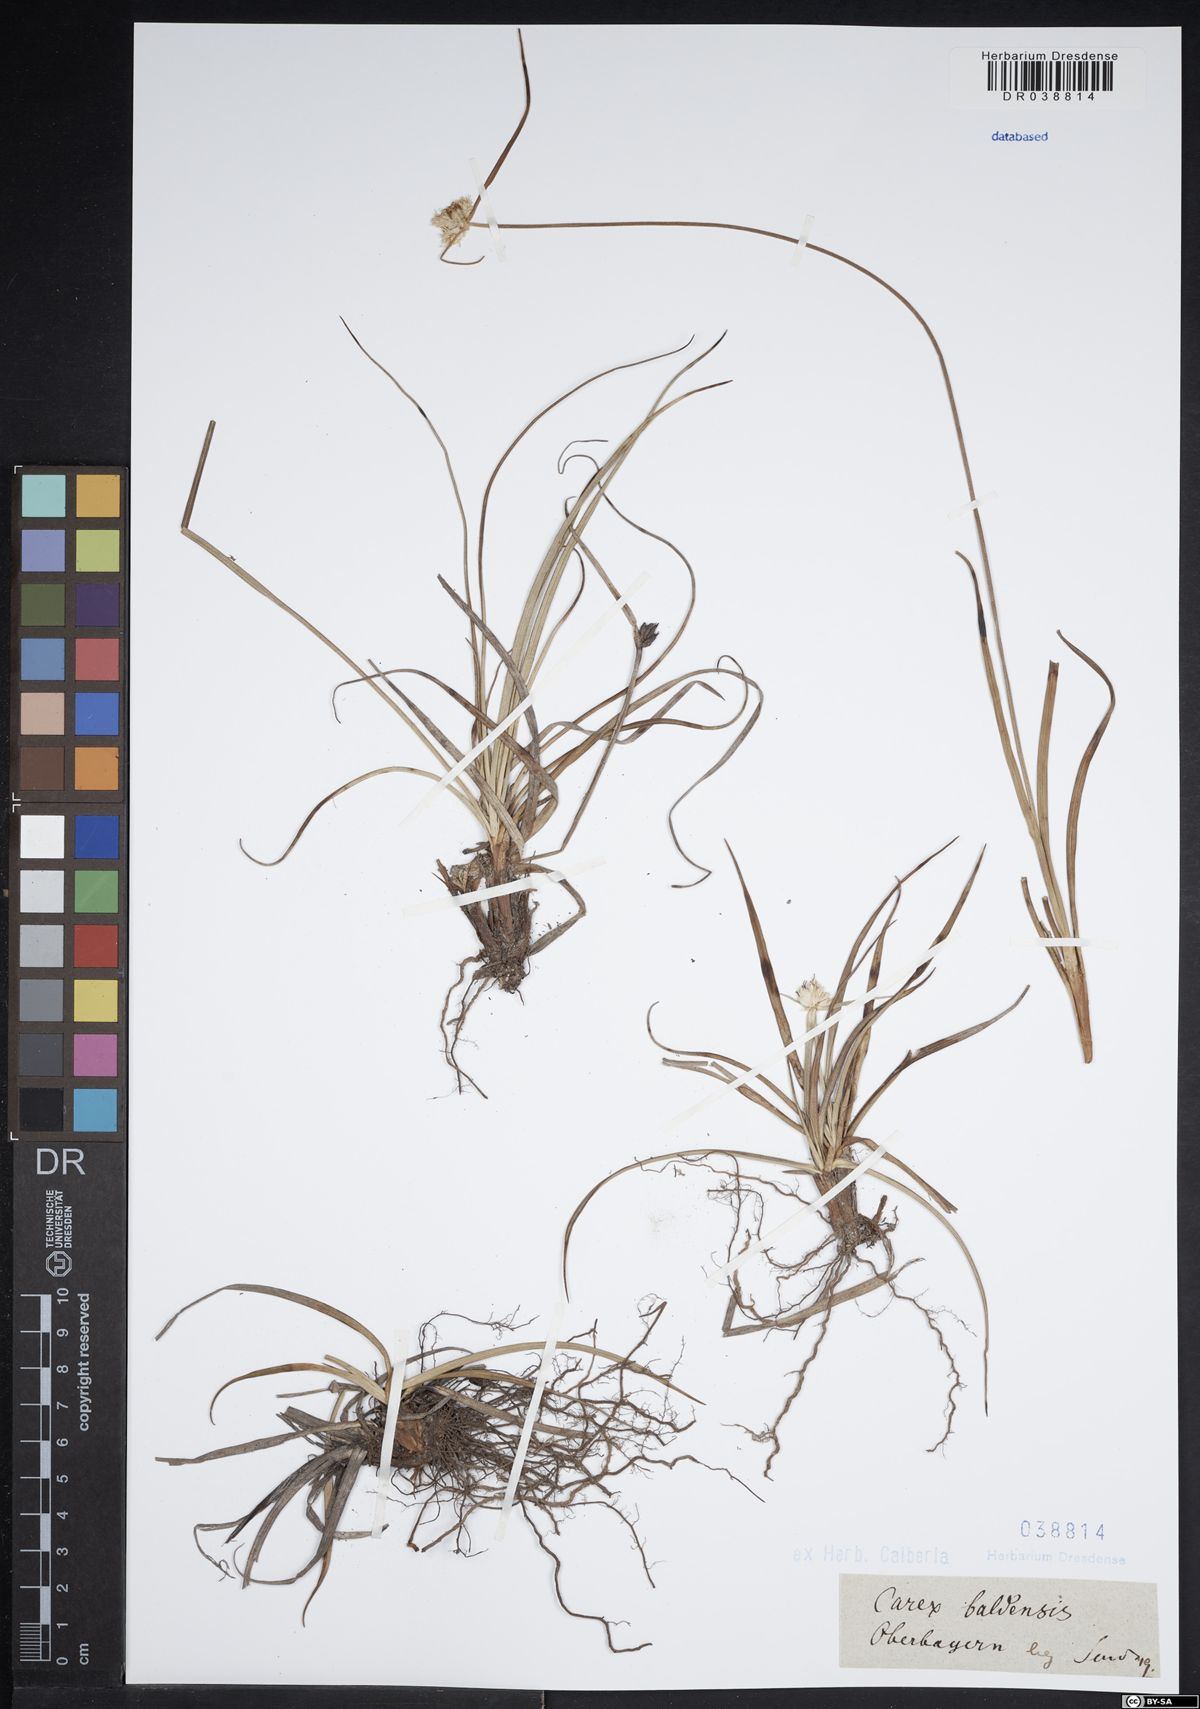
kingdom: Plantae
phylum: Tracheophyta
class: Liliopsida
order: Poales
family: Cyperaceae
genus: Carex
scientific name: Carex baldensis
